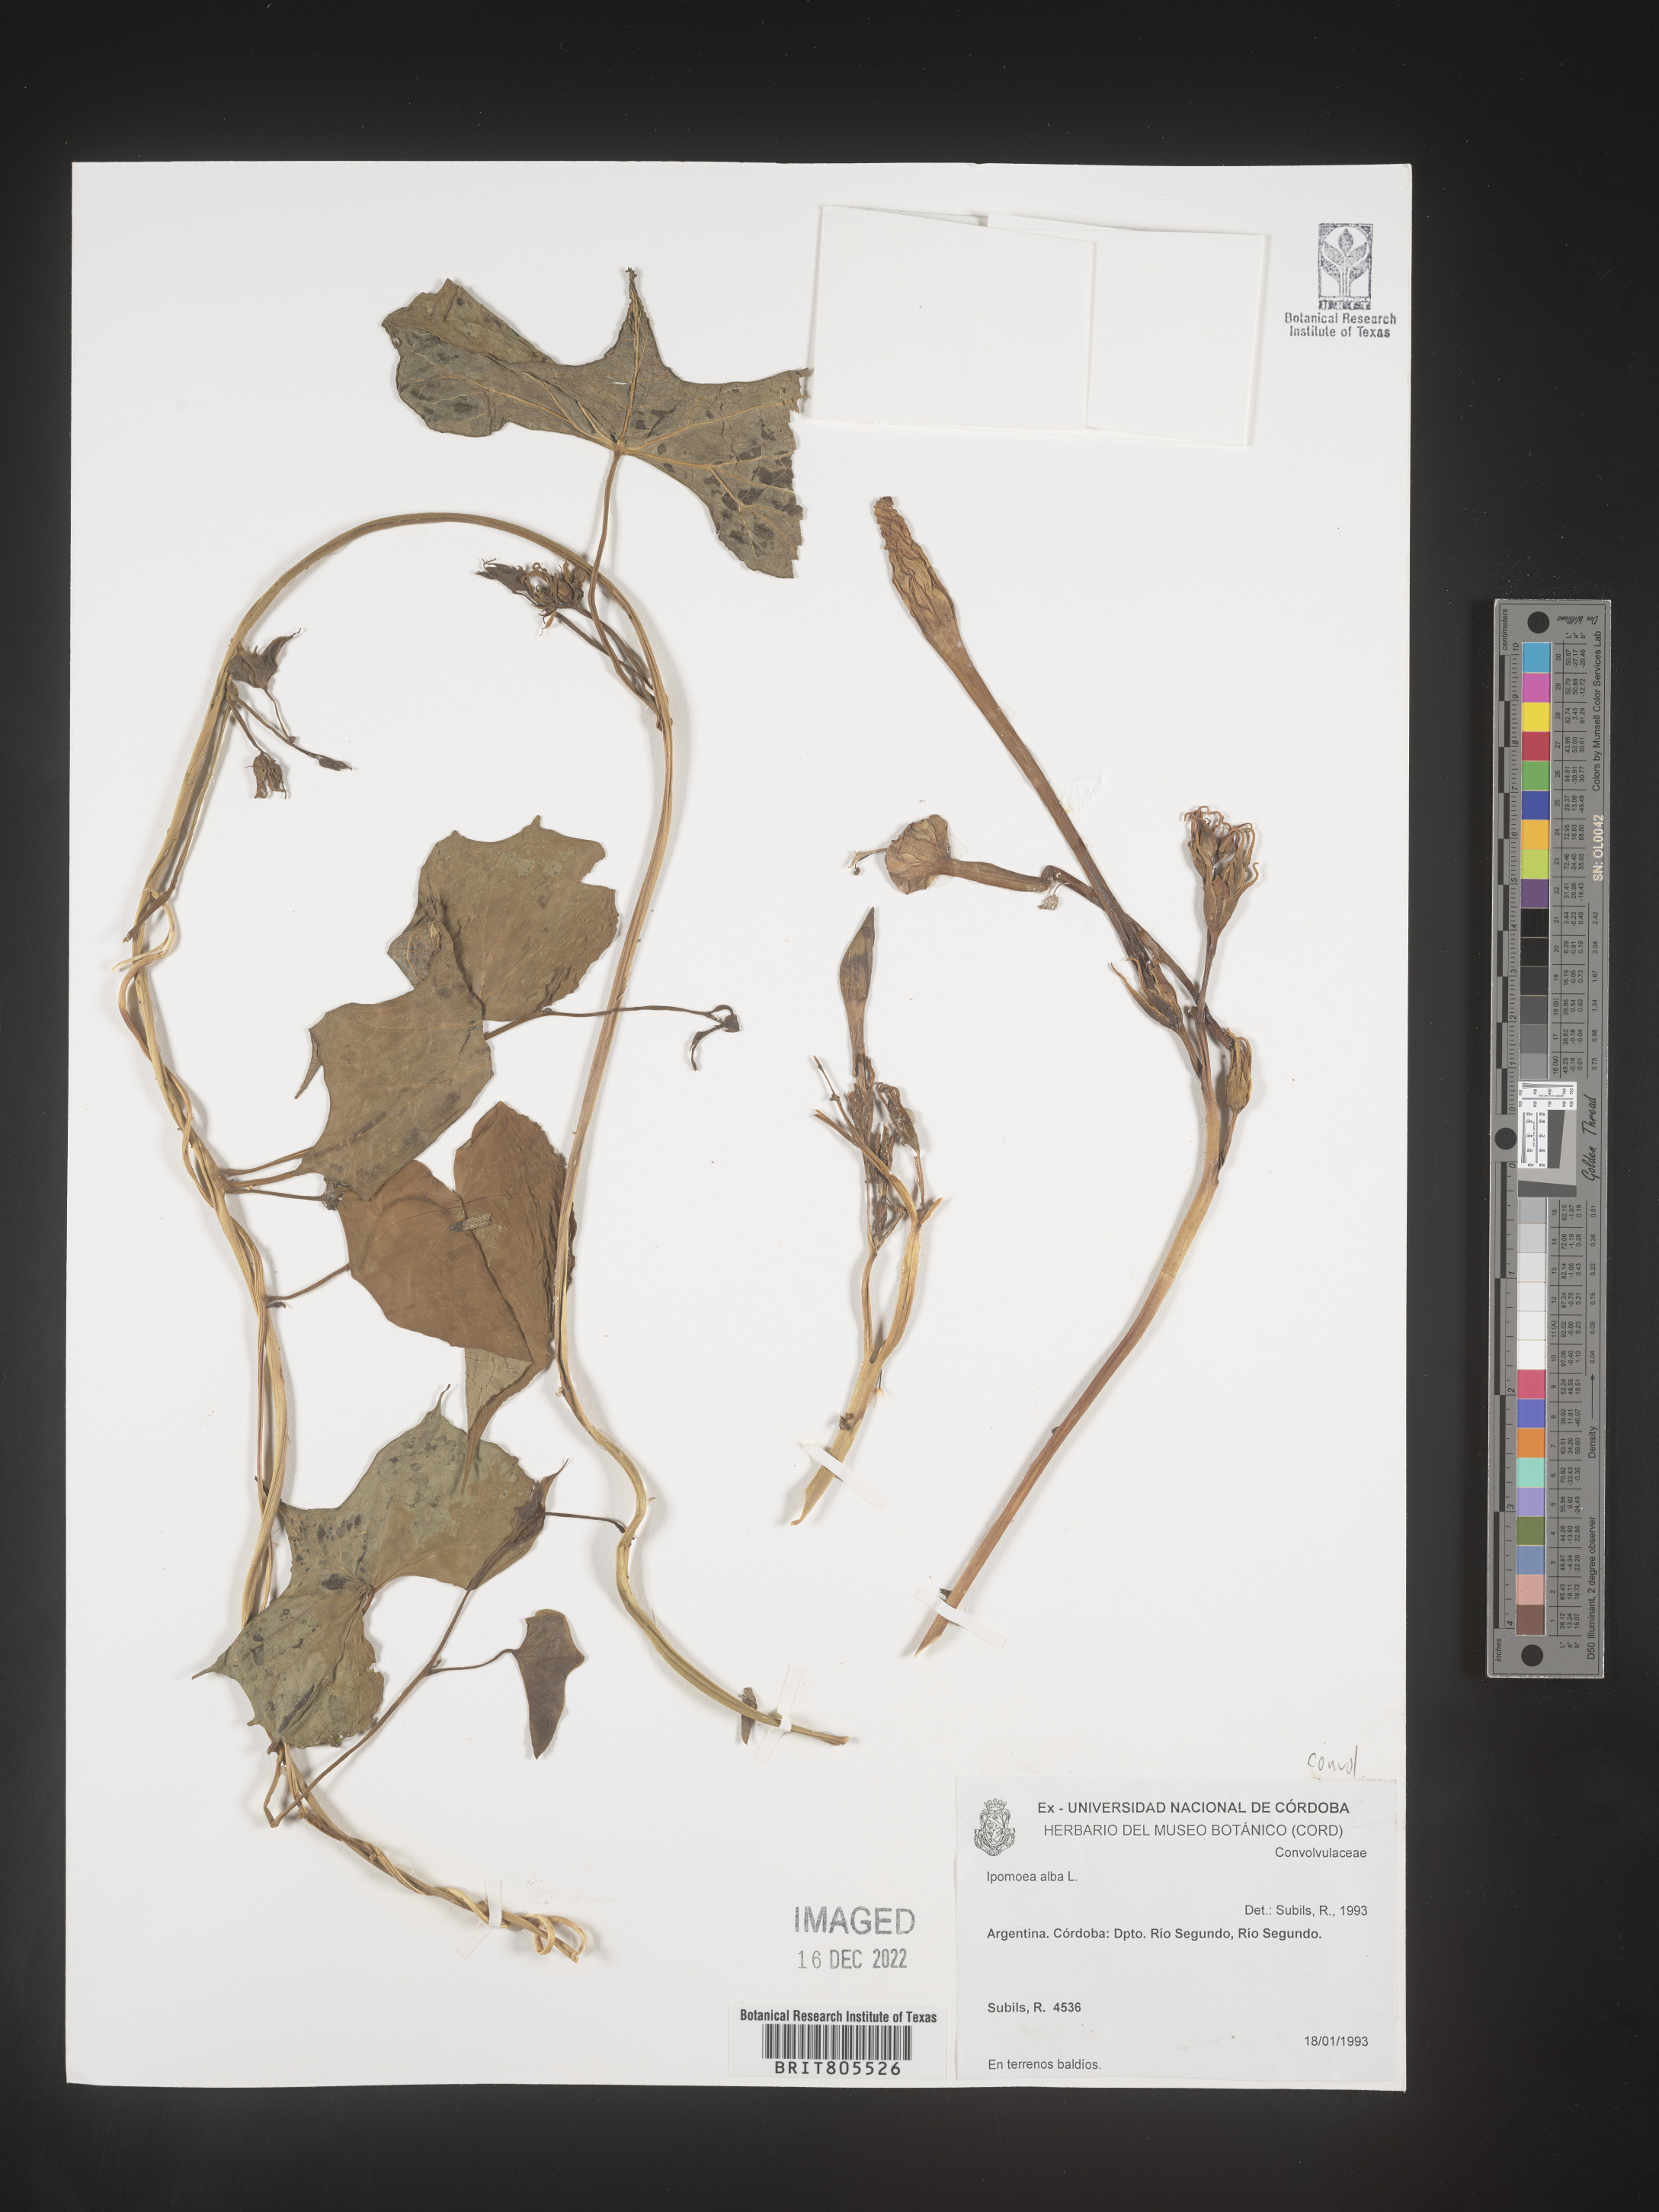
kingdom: Plantae
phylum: Tracheophyta
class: Magnoliopsida
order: Solanales
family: Convolvulaceae
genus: Ipomoea
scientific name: Ipomoea
